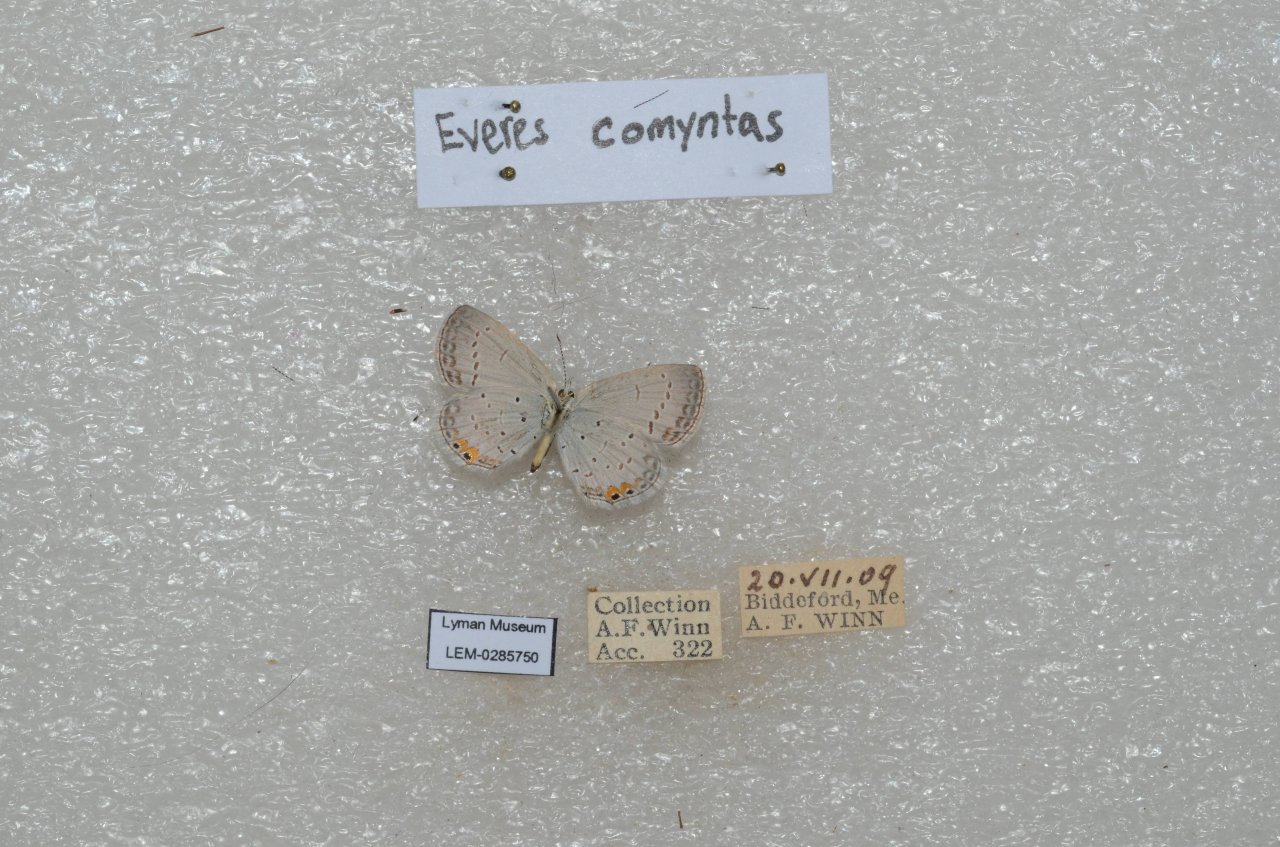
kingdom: Animalia
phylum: Arthropoda
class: Insecta
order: Lepidoptera
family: Lycaenidae
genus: Elkalyce
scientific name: Elkalyce comyntas
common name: Eastern Tailed-Blue
